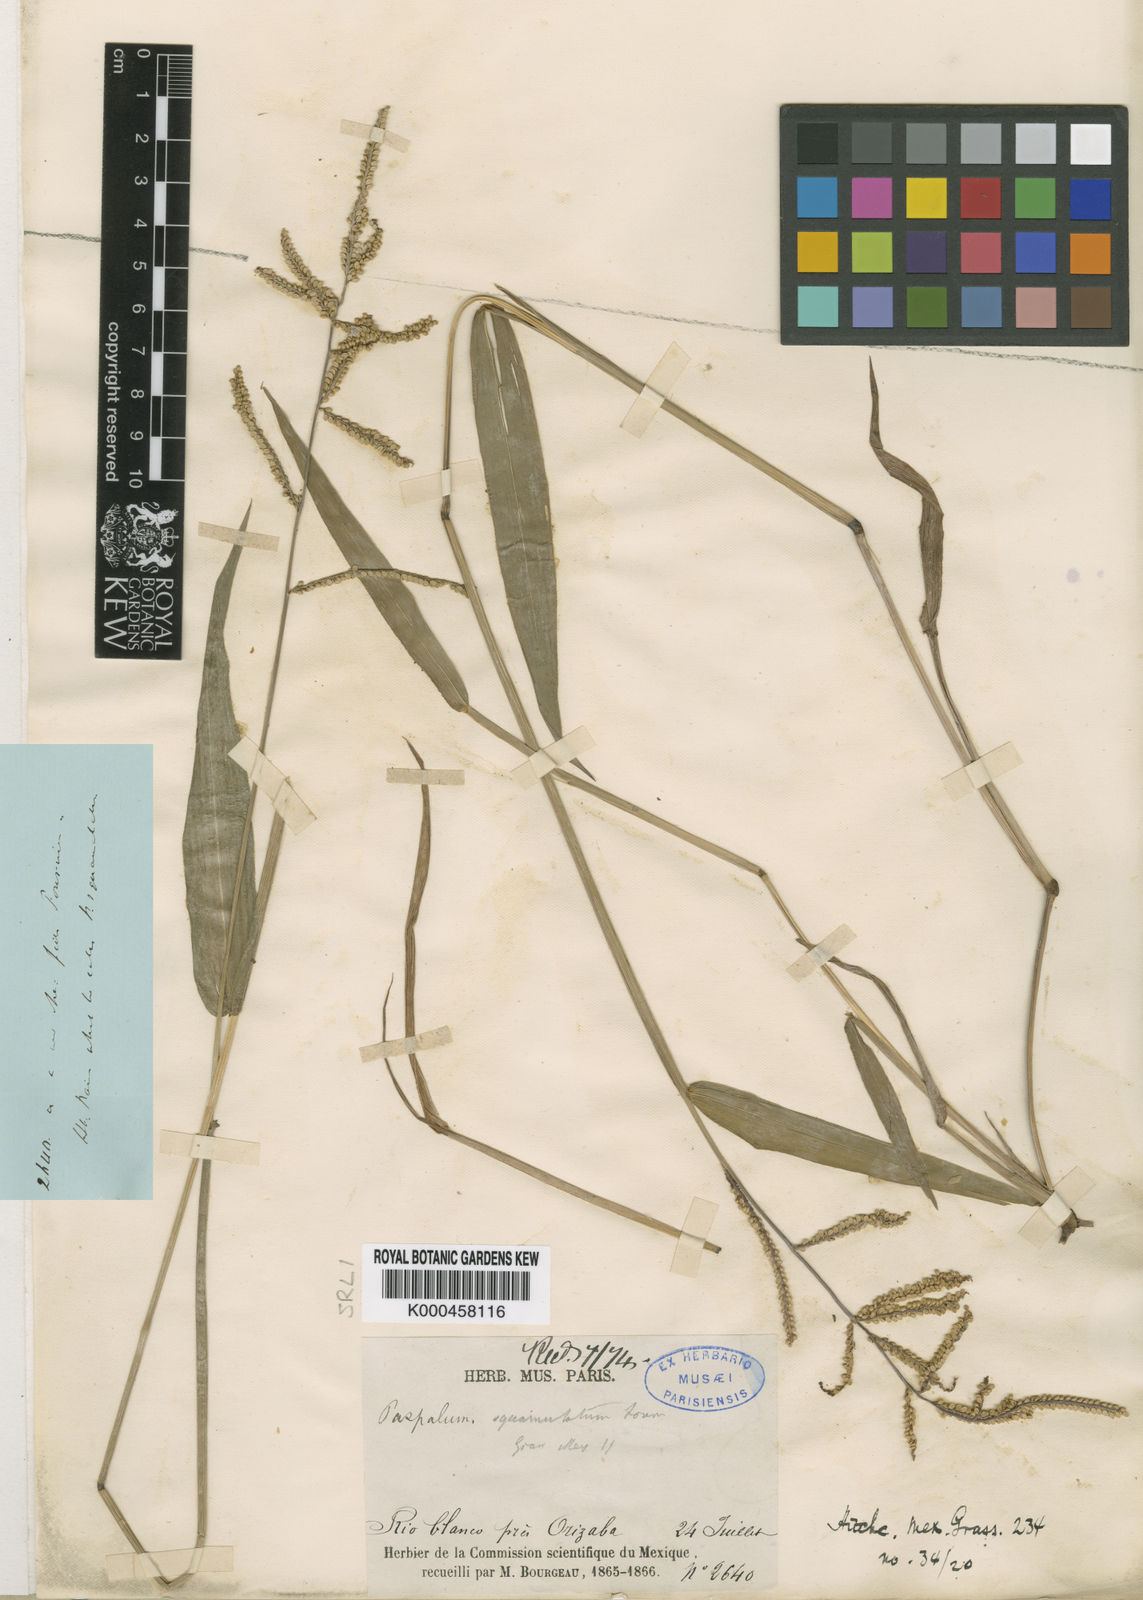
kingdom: Plantae
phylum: Tracheophyta
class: Liliopsida
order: Poales
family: Poaceae
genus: Paspalum
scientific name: Paspalum
